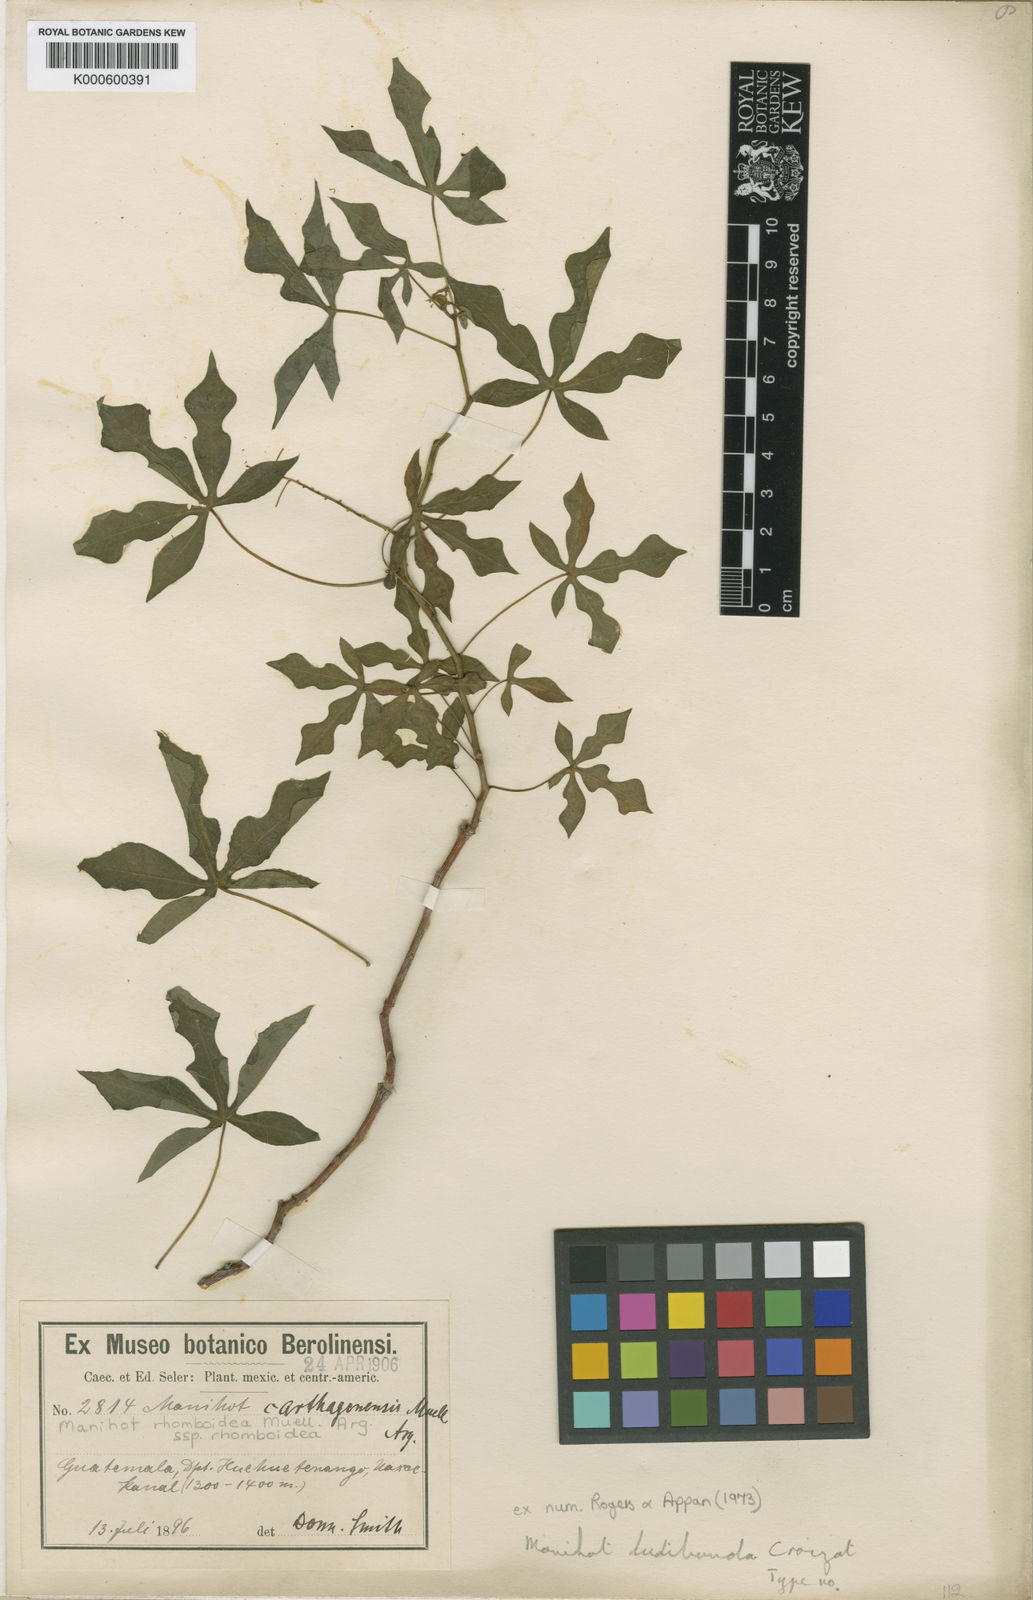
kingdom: Plantae
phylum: Tracheophyta
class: Magnoliopsida
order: Malpighiales
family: Euphorbiaceae
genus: Manihot
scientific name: Manihot
